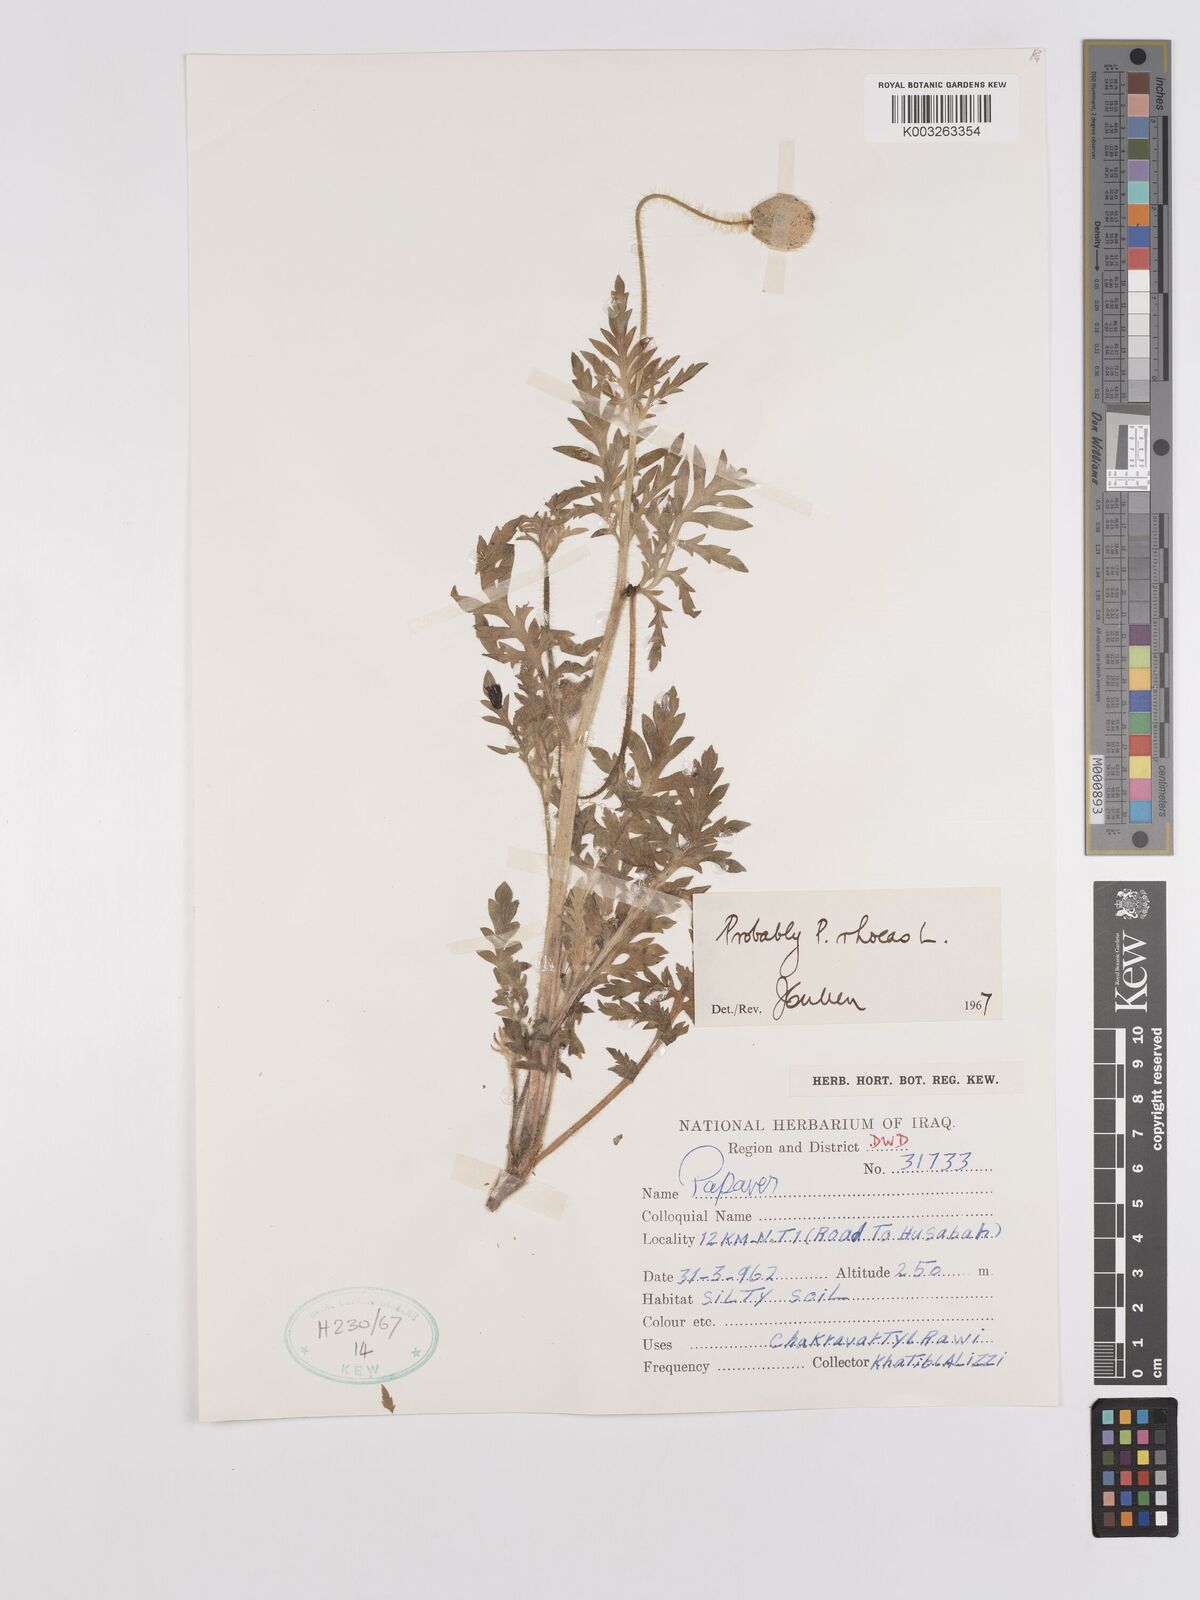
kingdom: Plantae
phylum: Tracheophyta
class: Magnoliopsida
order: Ranunculales
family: Papaveraceae
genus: Papaver
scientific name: Papaver rhoeas
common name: Corn poppy
